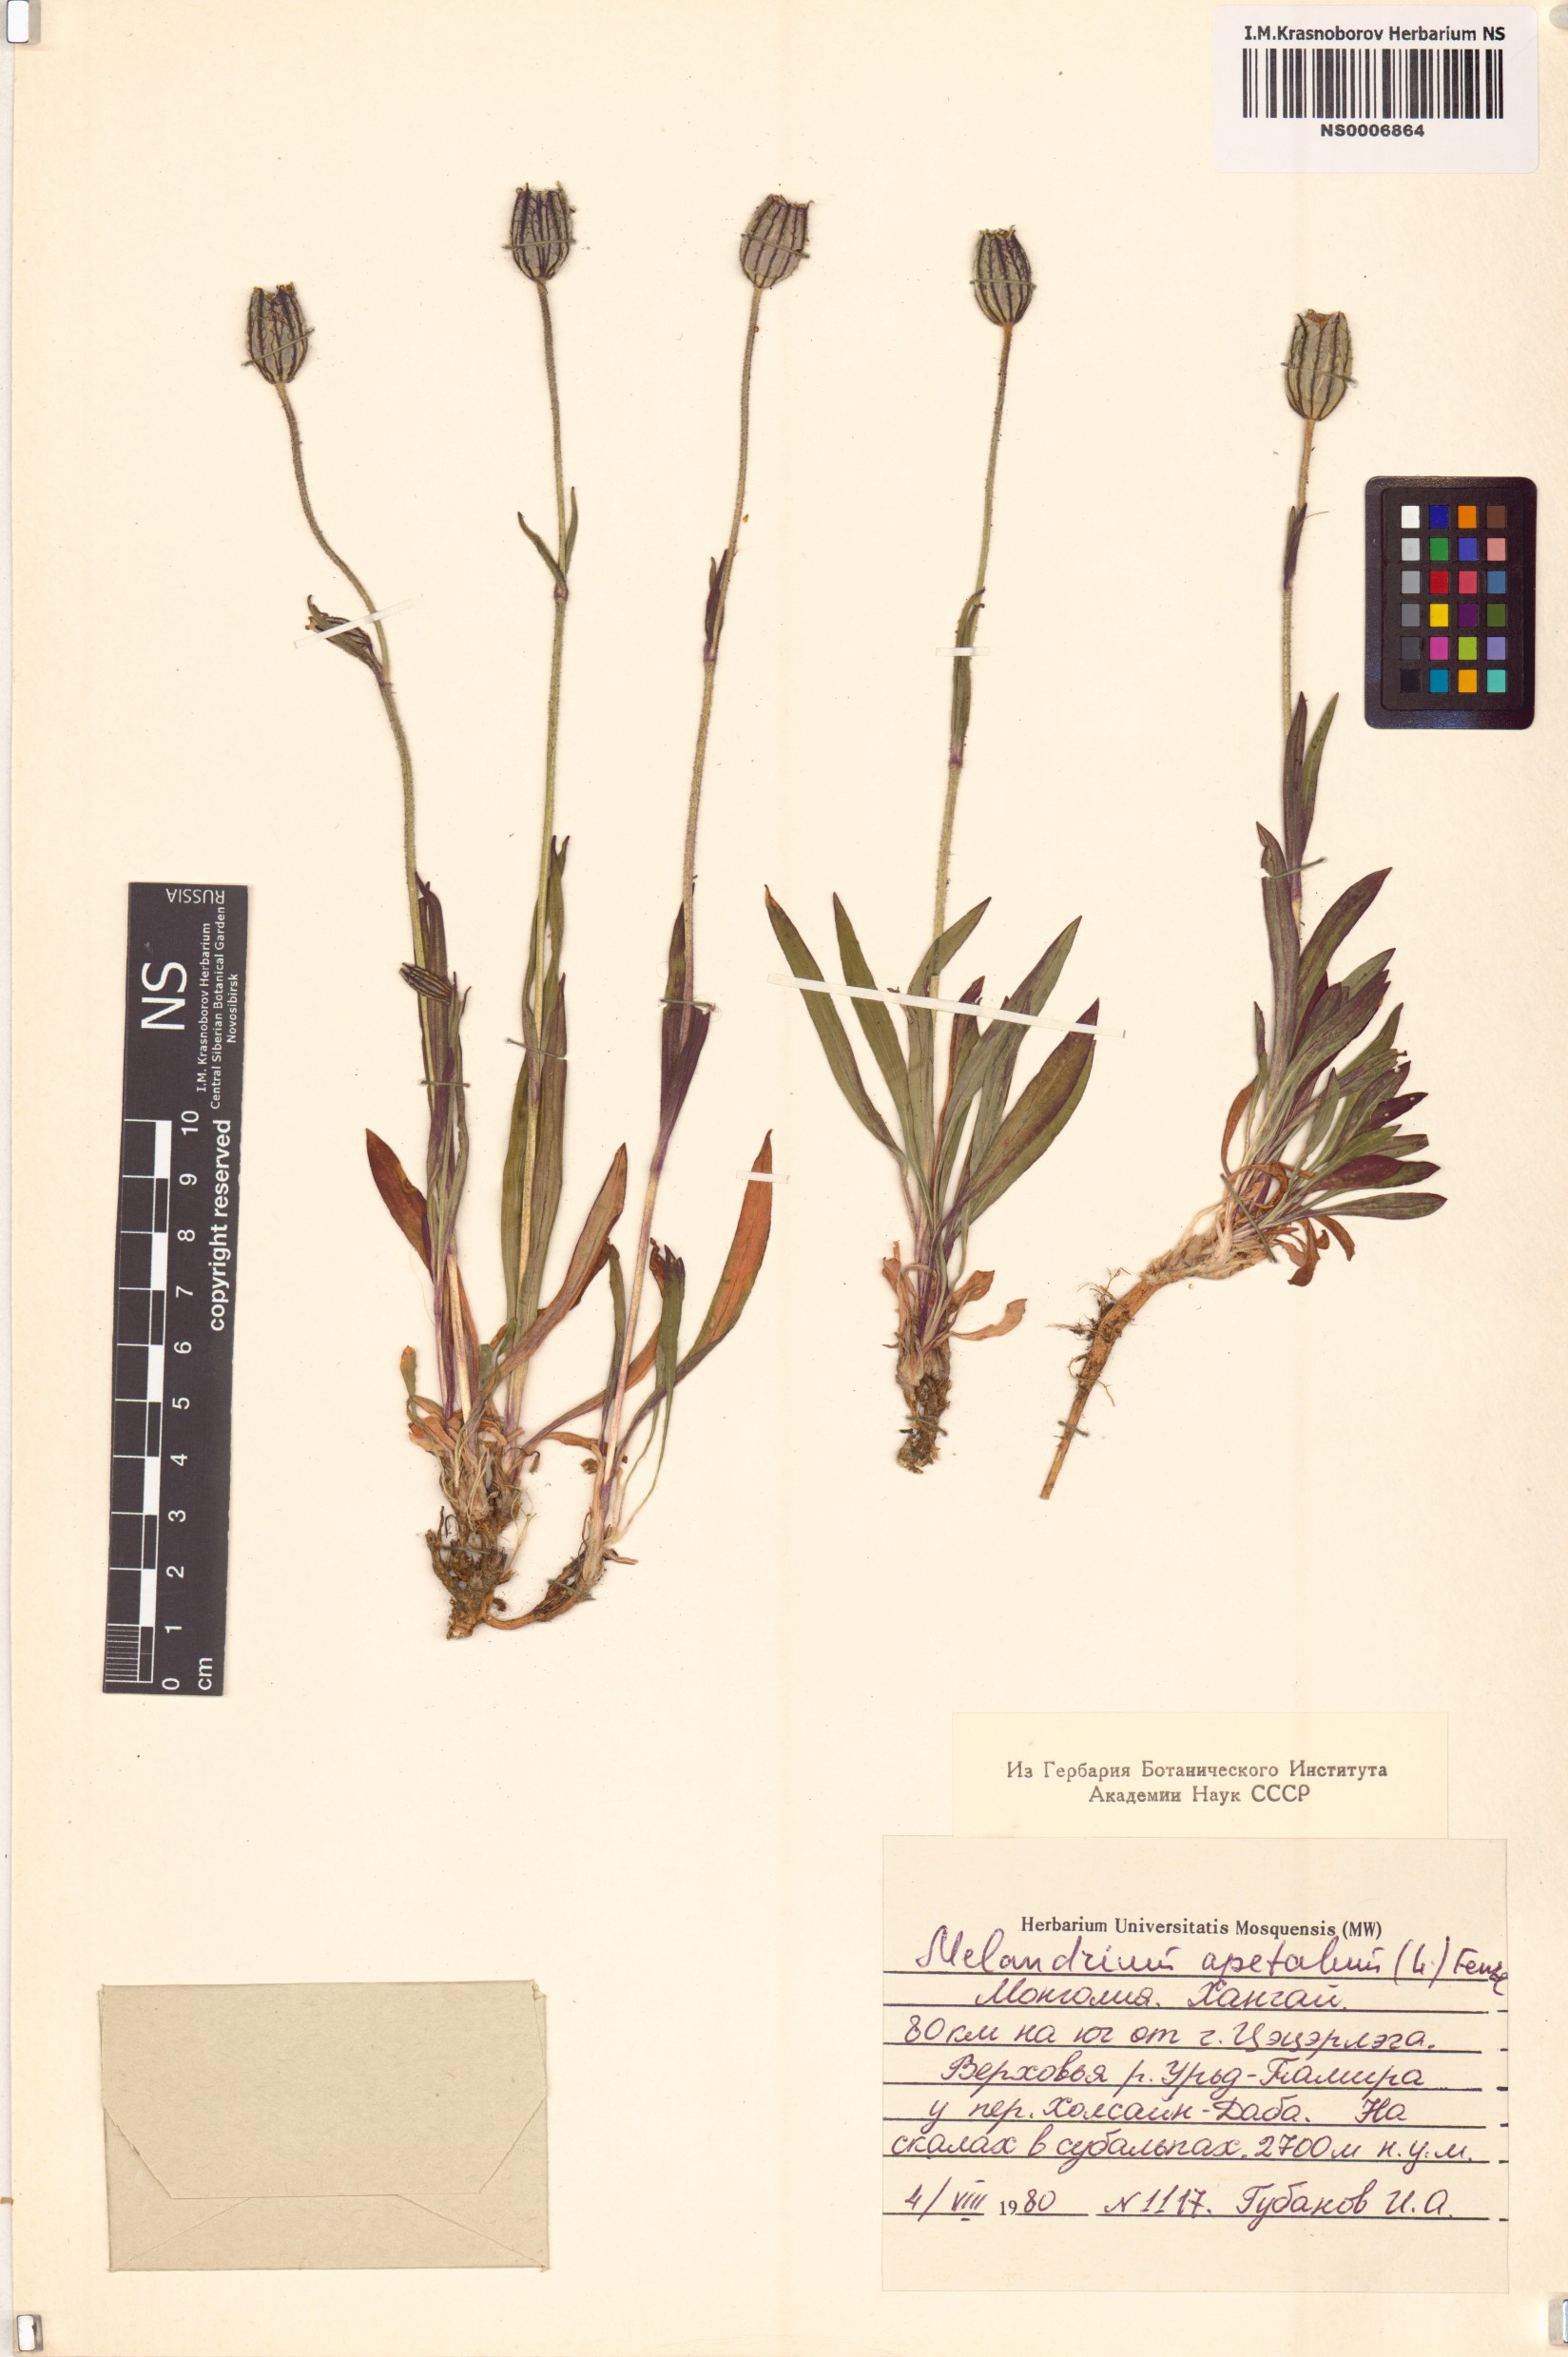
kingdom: Plantae
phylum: Tracheophyta
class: Magnoliopsida
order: Caryophyllales
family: Caryophyllaceae
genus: Silene
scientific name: Silene wahlbergella
